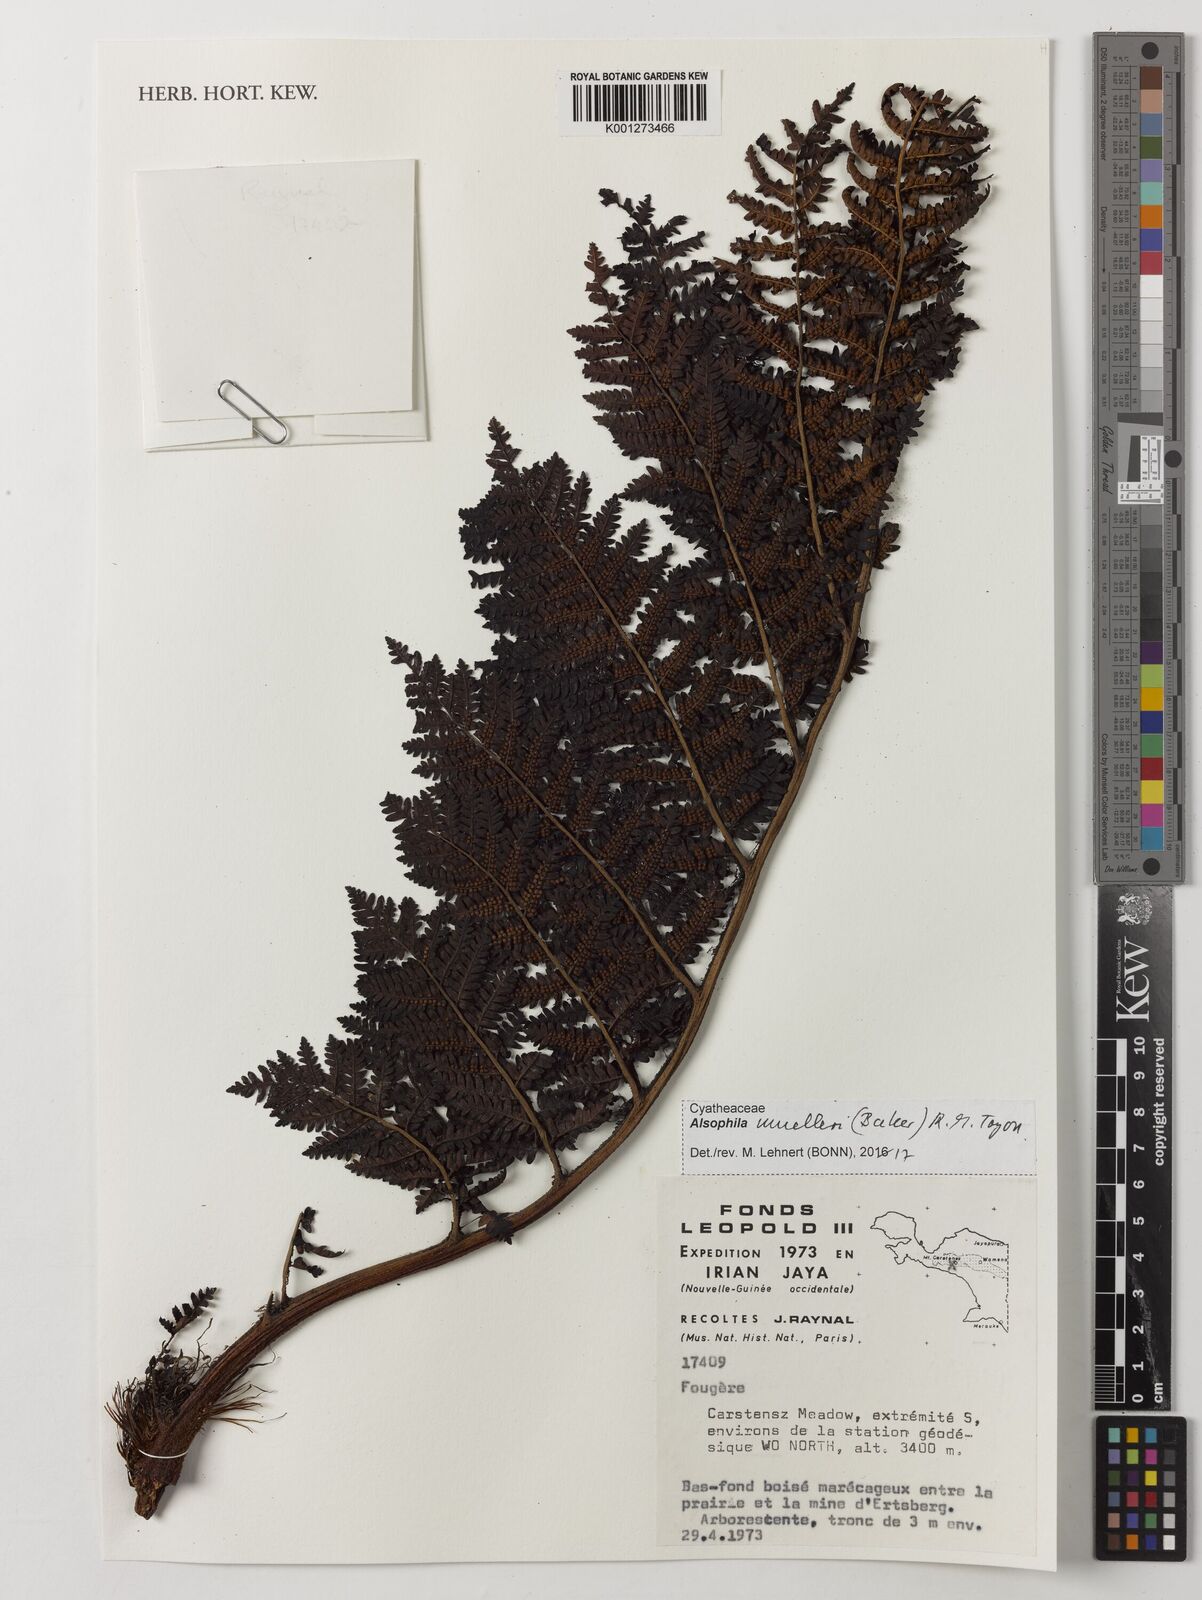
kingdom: Plantae
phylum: Tracheophyta
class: Polypodiopsida
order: Cyatheales
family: Cyatheaceae
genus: Alsophila
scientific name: Alsophila muelleri
